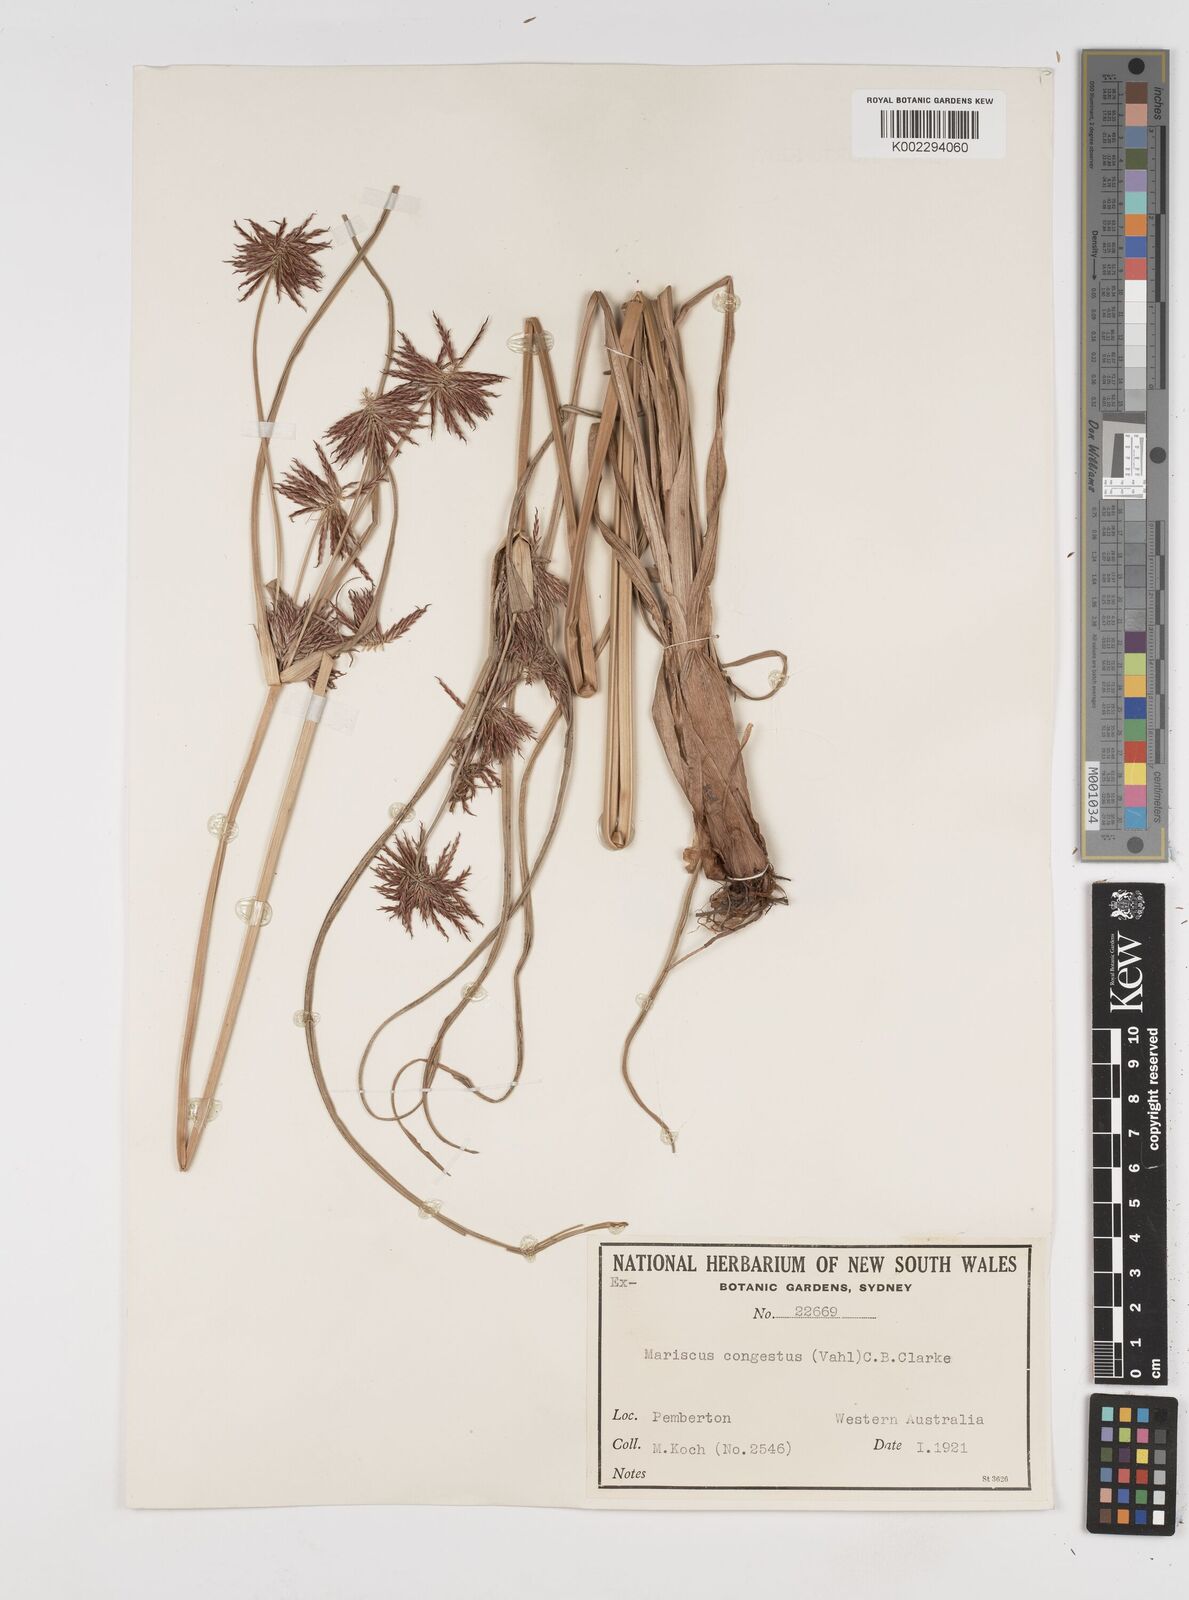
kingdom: Plantae
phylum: Tracheophyta
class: Liliopsida
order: Poales
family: Cyperaceae
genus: Cyperus
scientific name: Cyperus congestus
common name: Dense flat sedge
